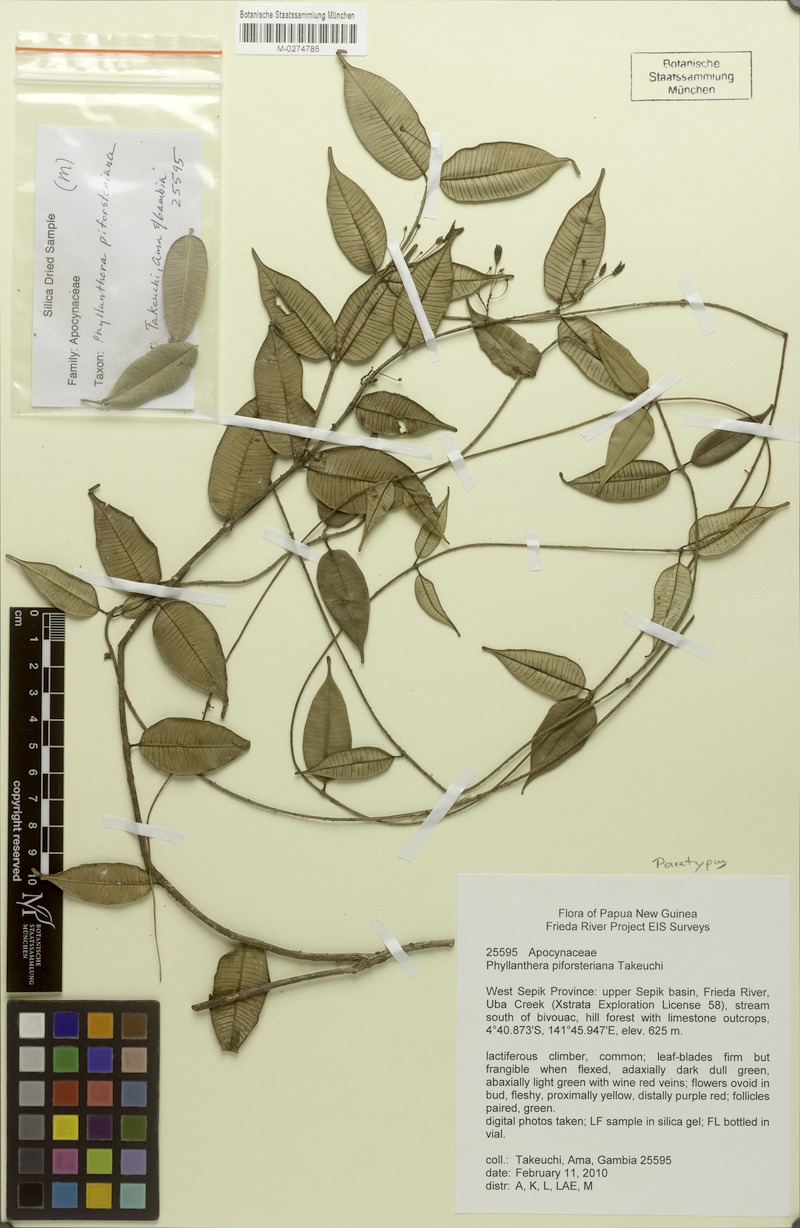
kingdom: Plantae
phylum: Tracheophyta
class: Magnoliopsida
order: Gentianales
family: Apocynaceae
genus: Phyllanthera
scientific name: Phyllanthera piforsteriana
